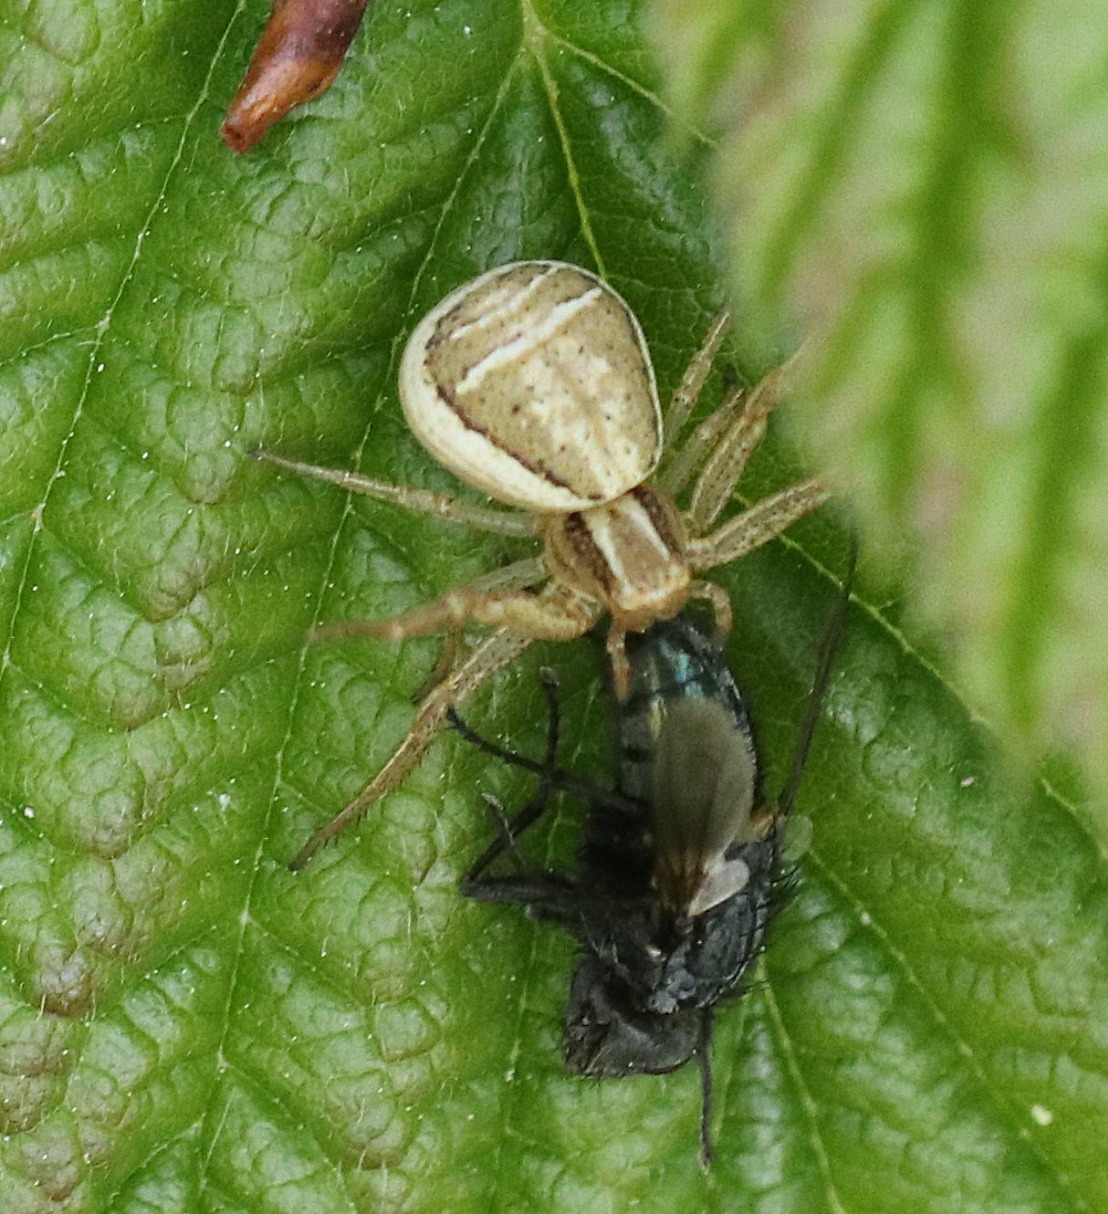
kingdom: Animalia
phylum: Arthropoda
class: Arachnida
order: Araneae
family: Thomisidae
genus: Xysticus
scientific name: Xysticus ulmi
